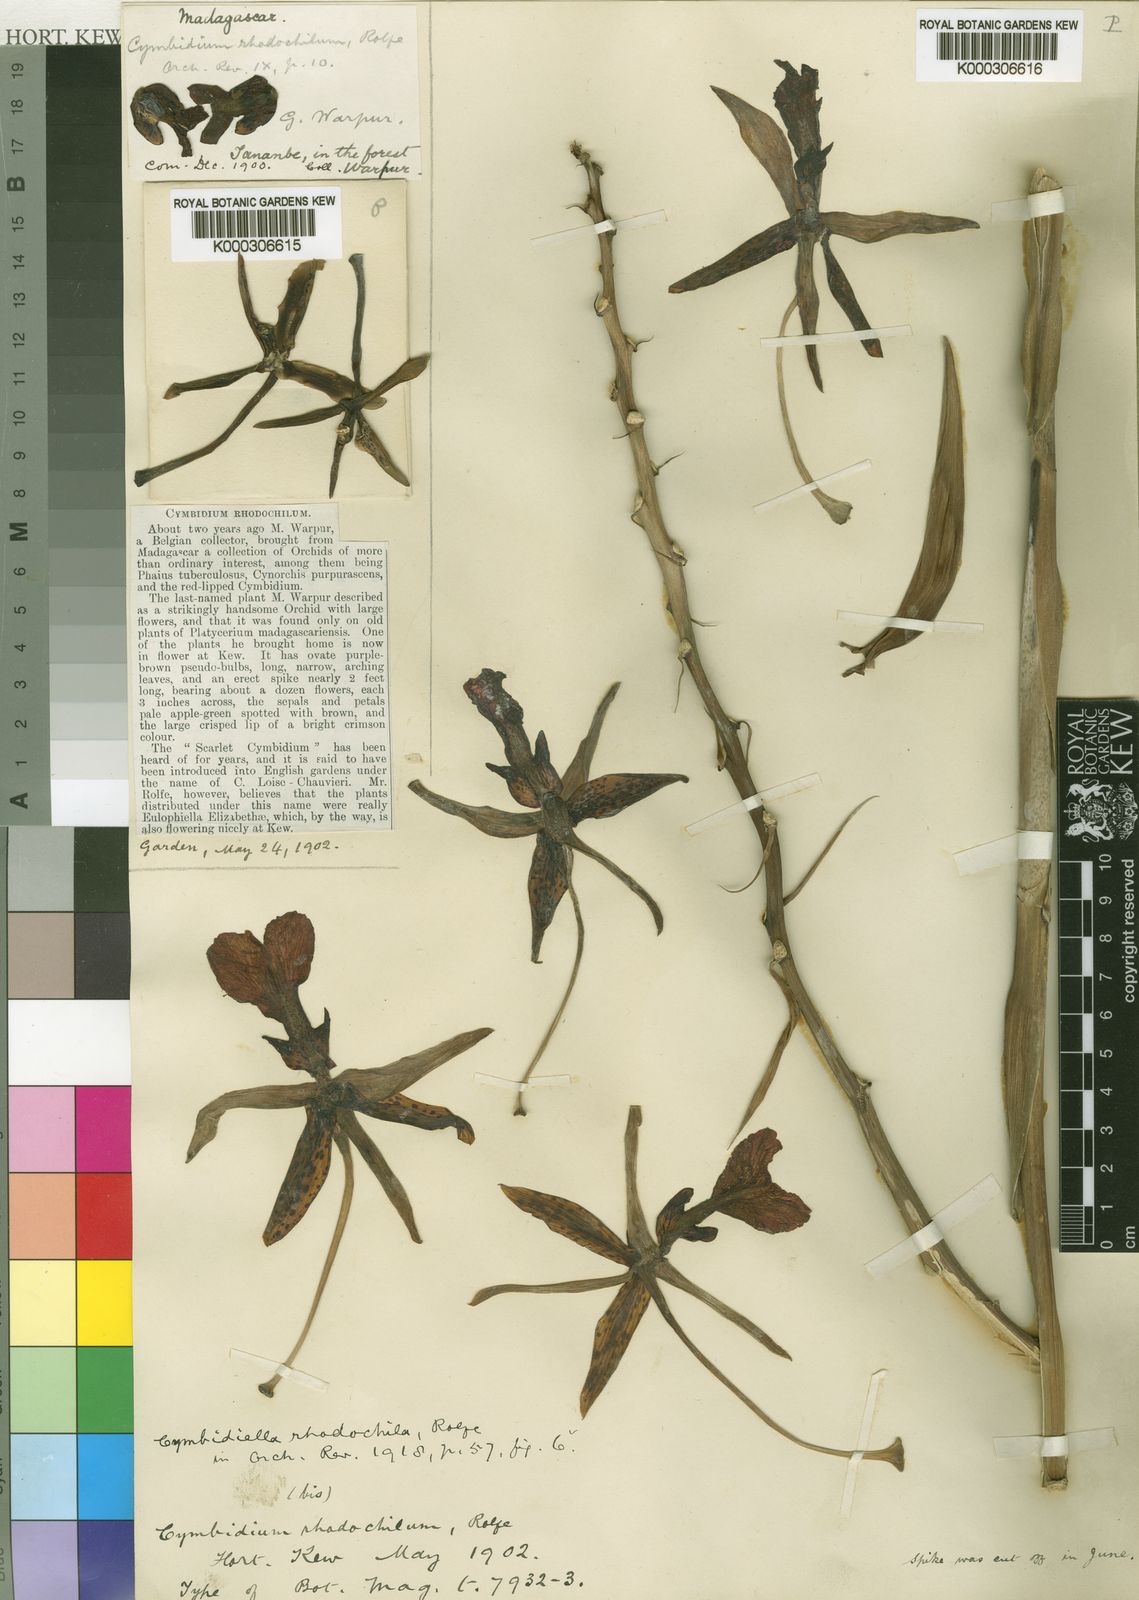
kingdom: Plantae
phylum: Tracheophyta
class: Liliopsida
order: Asparagales
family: Orchidaceae
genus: Eulophia
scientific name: Eulophia pardalina
